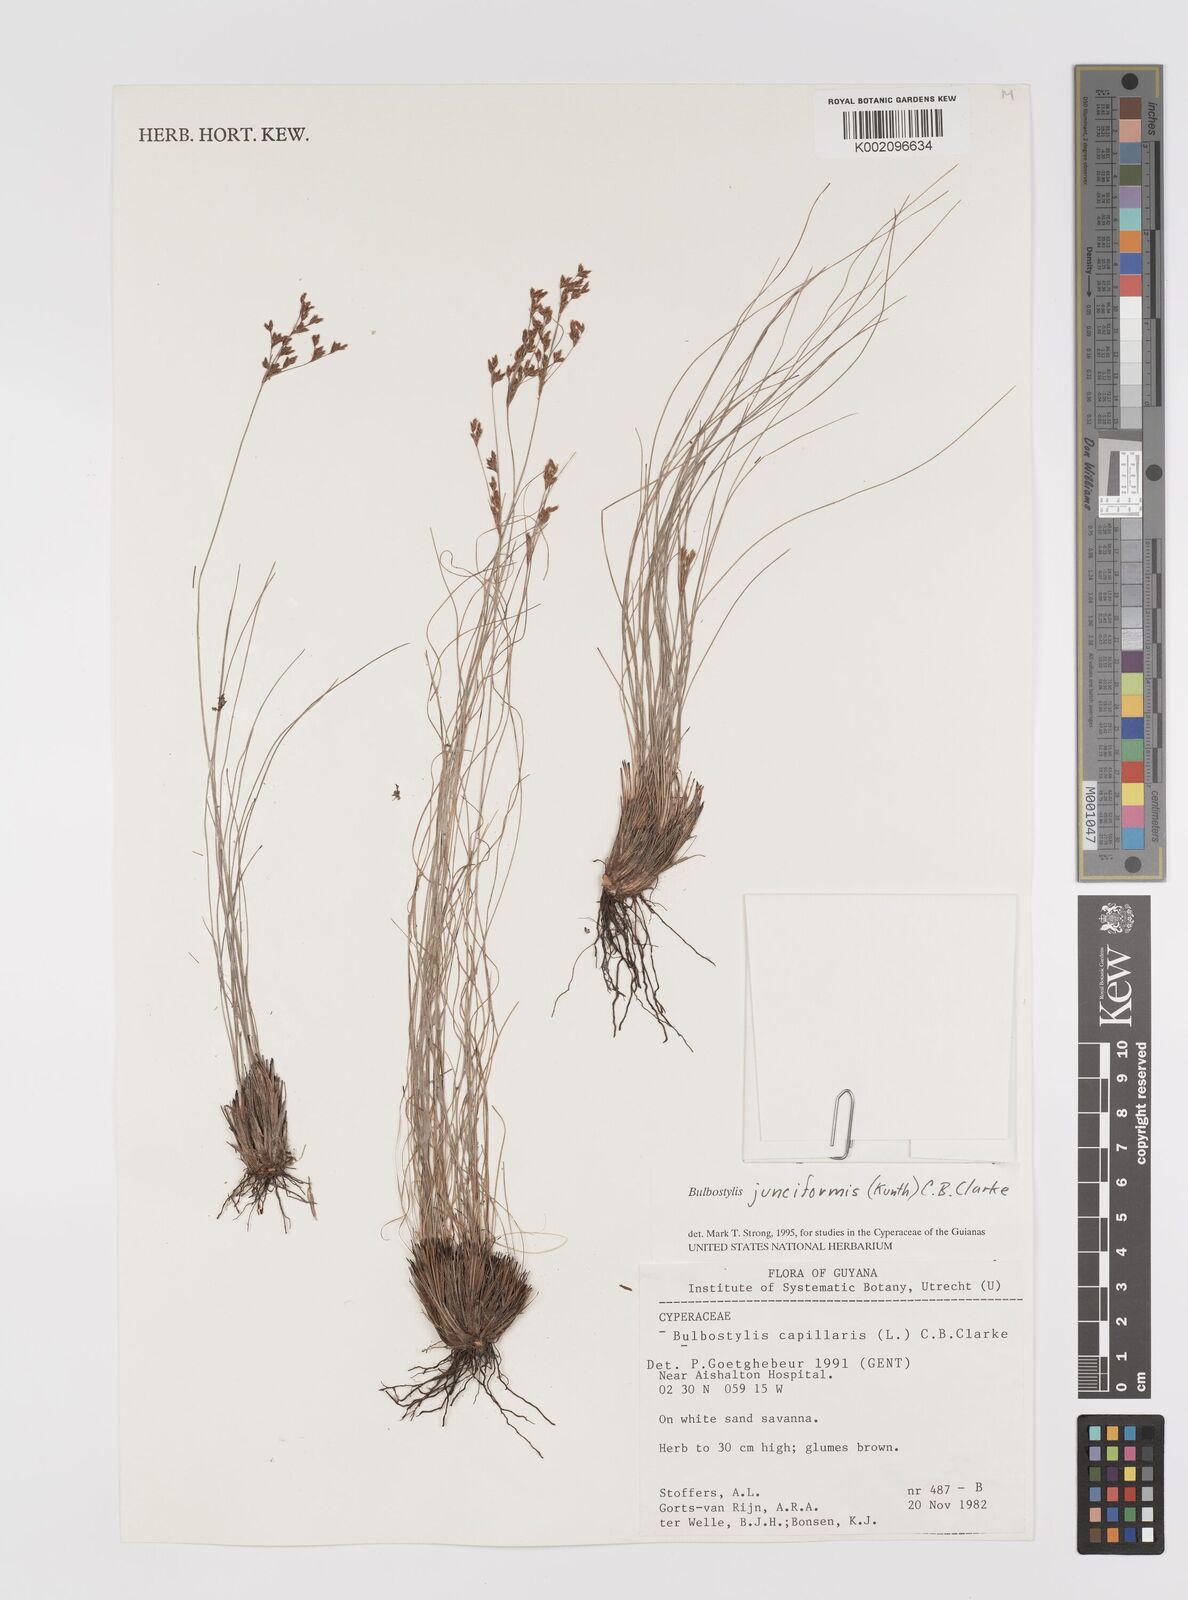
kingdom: Plantae
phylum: Tracheophyta
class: Liliopsida
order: Poales
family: Cyperaceae
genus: Bulbostylis
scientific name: Bulbostylis junciformis
